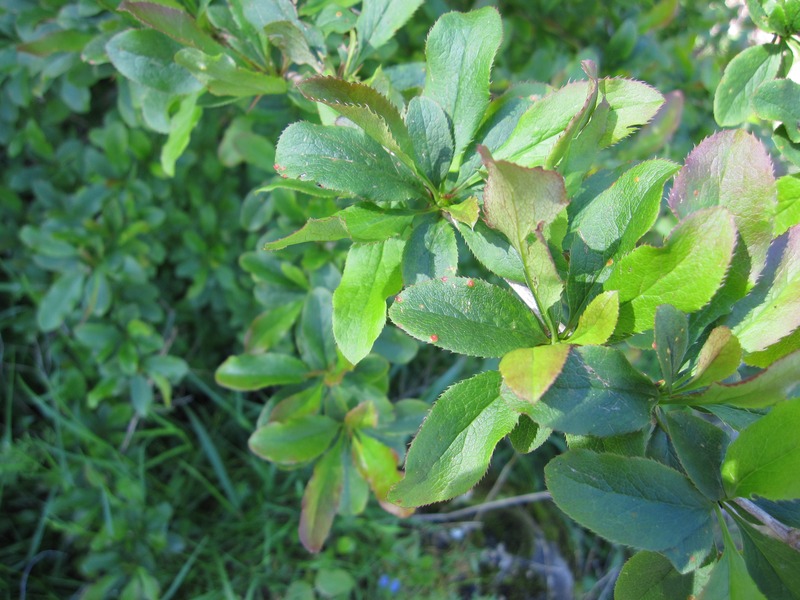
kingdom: Fungi
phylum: Basidiomycota
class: Pucciniomycetes
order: Pucciniales
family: Pucciniaceae
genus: Puccinia
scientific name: Puccinia graminis
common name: Black stem rust
